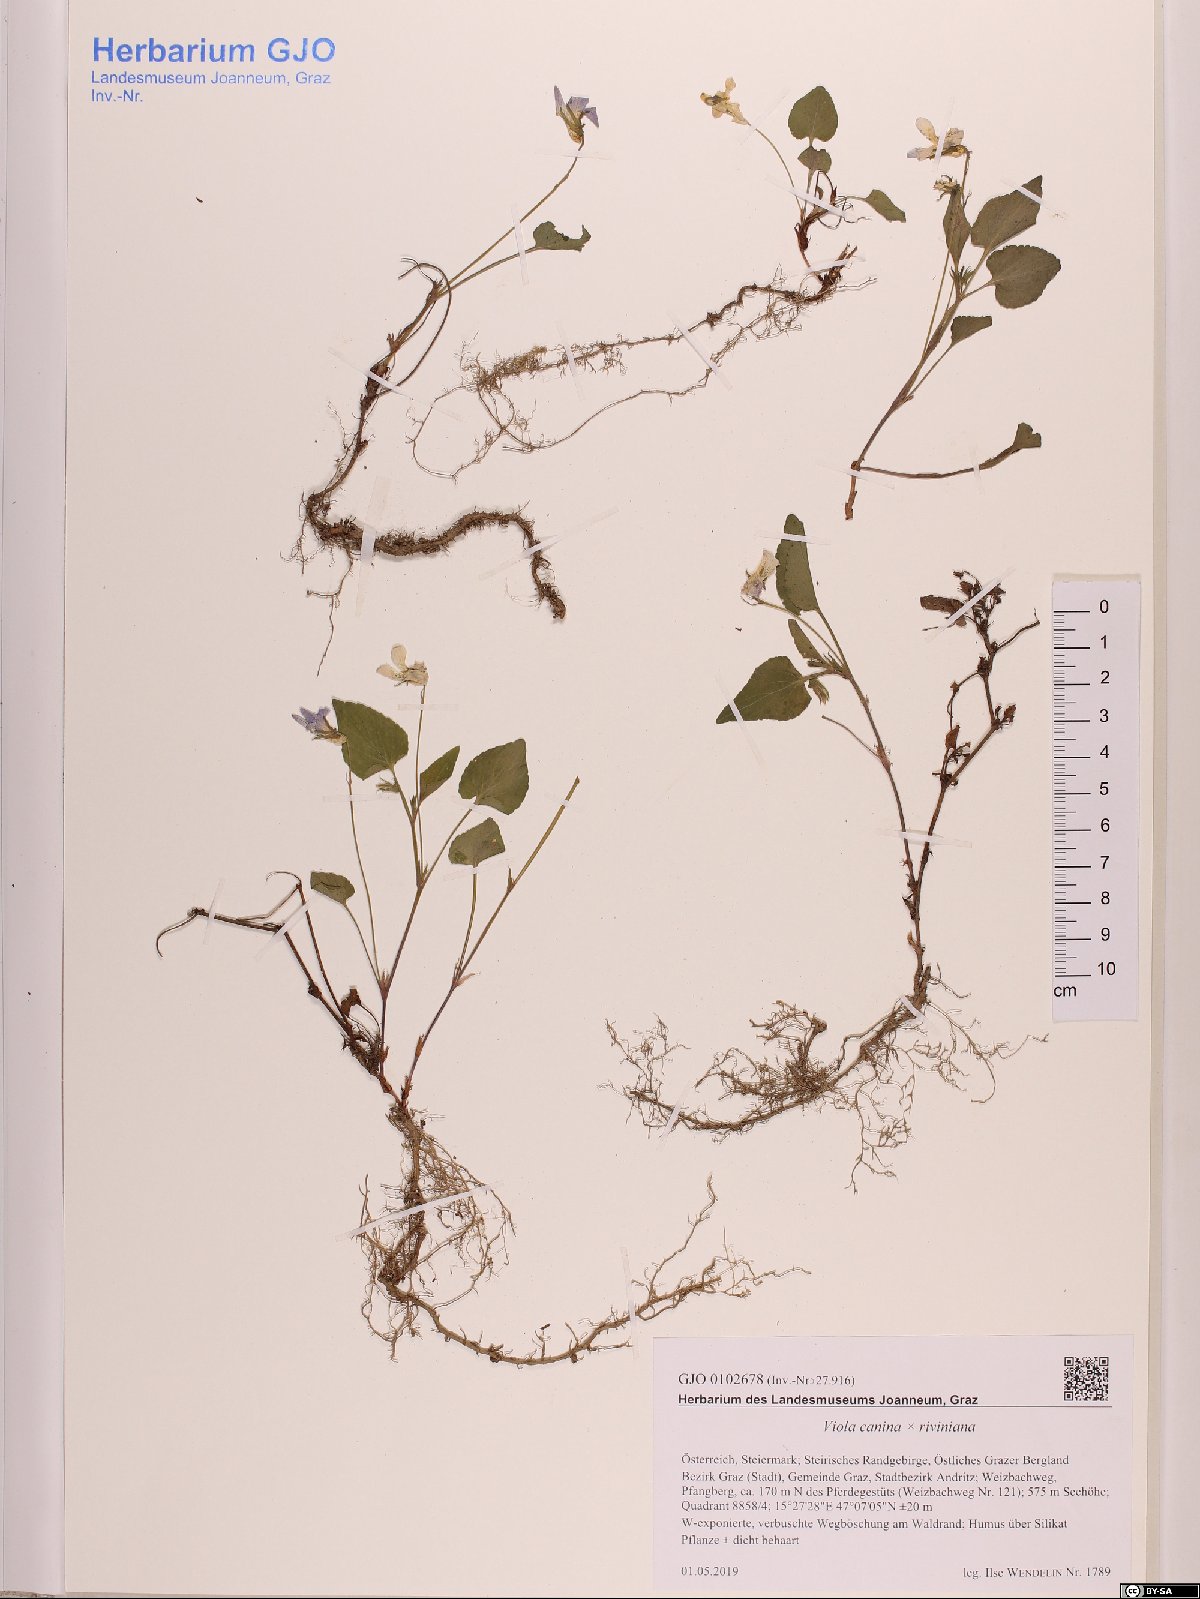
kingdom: Plantae
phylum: Tracheophyta
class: Magnoliopsida
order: Malpighiales
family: Violaceae
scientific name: Violaceae
